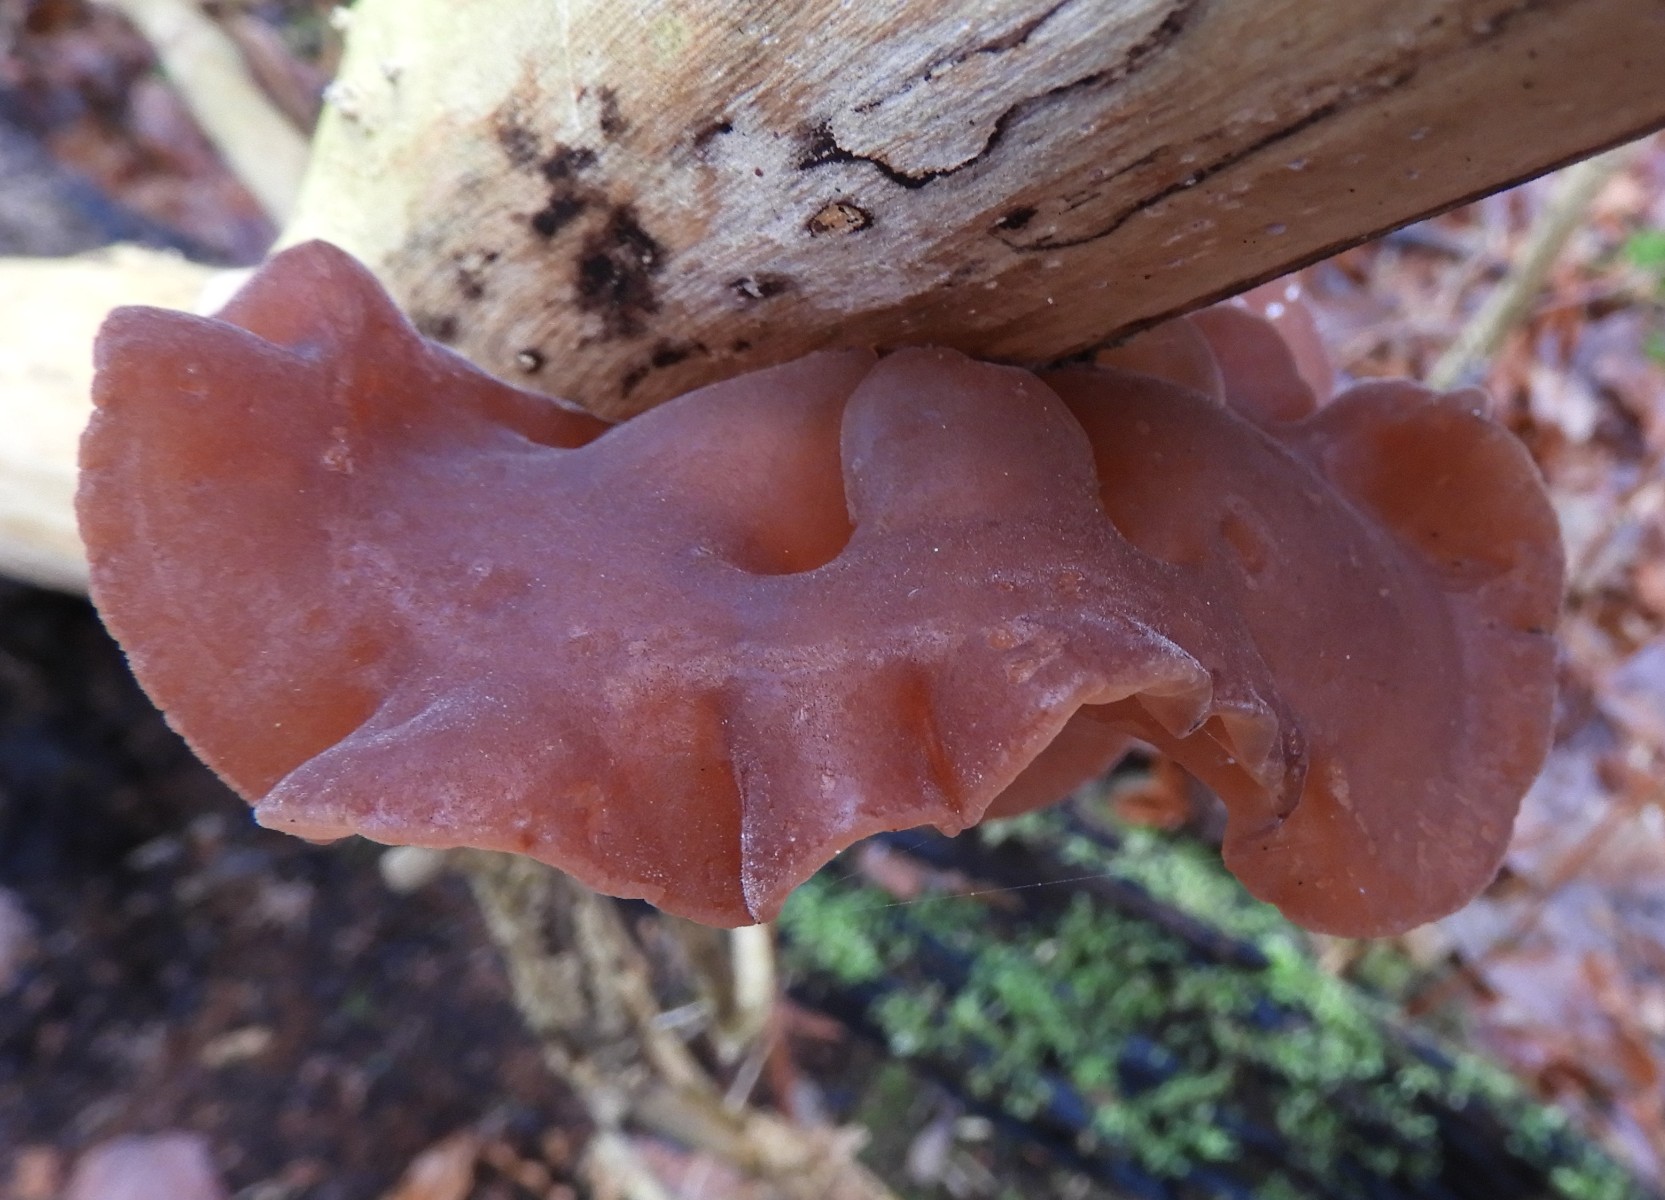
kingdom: Fungi
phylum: Basidiomycota
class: Agaricomycetes
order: Auriculariales
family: Auriculariaceae
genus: Auricularia
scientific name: Auricularia auricula-judae
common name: almindelig judasøre
